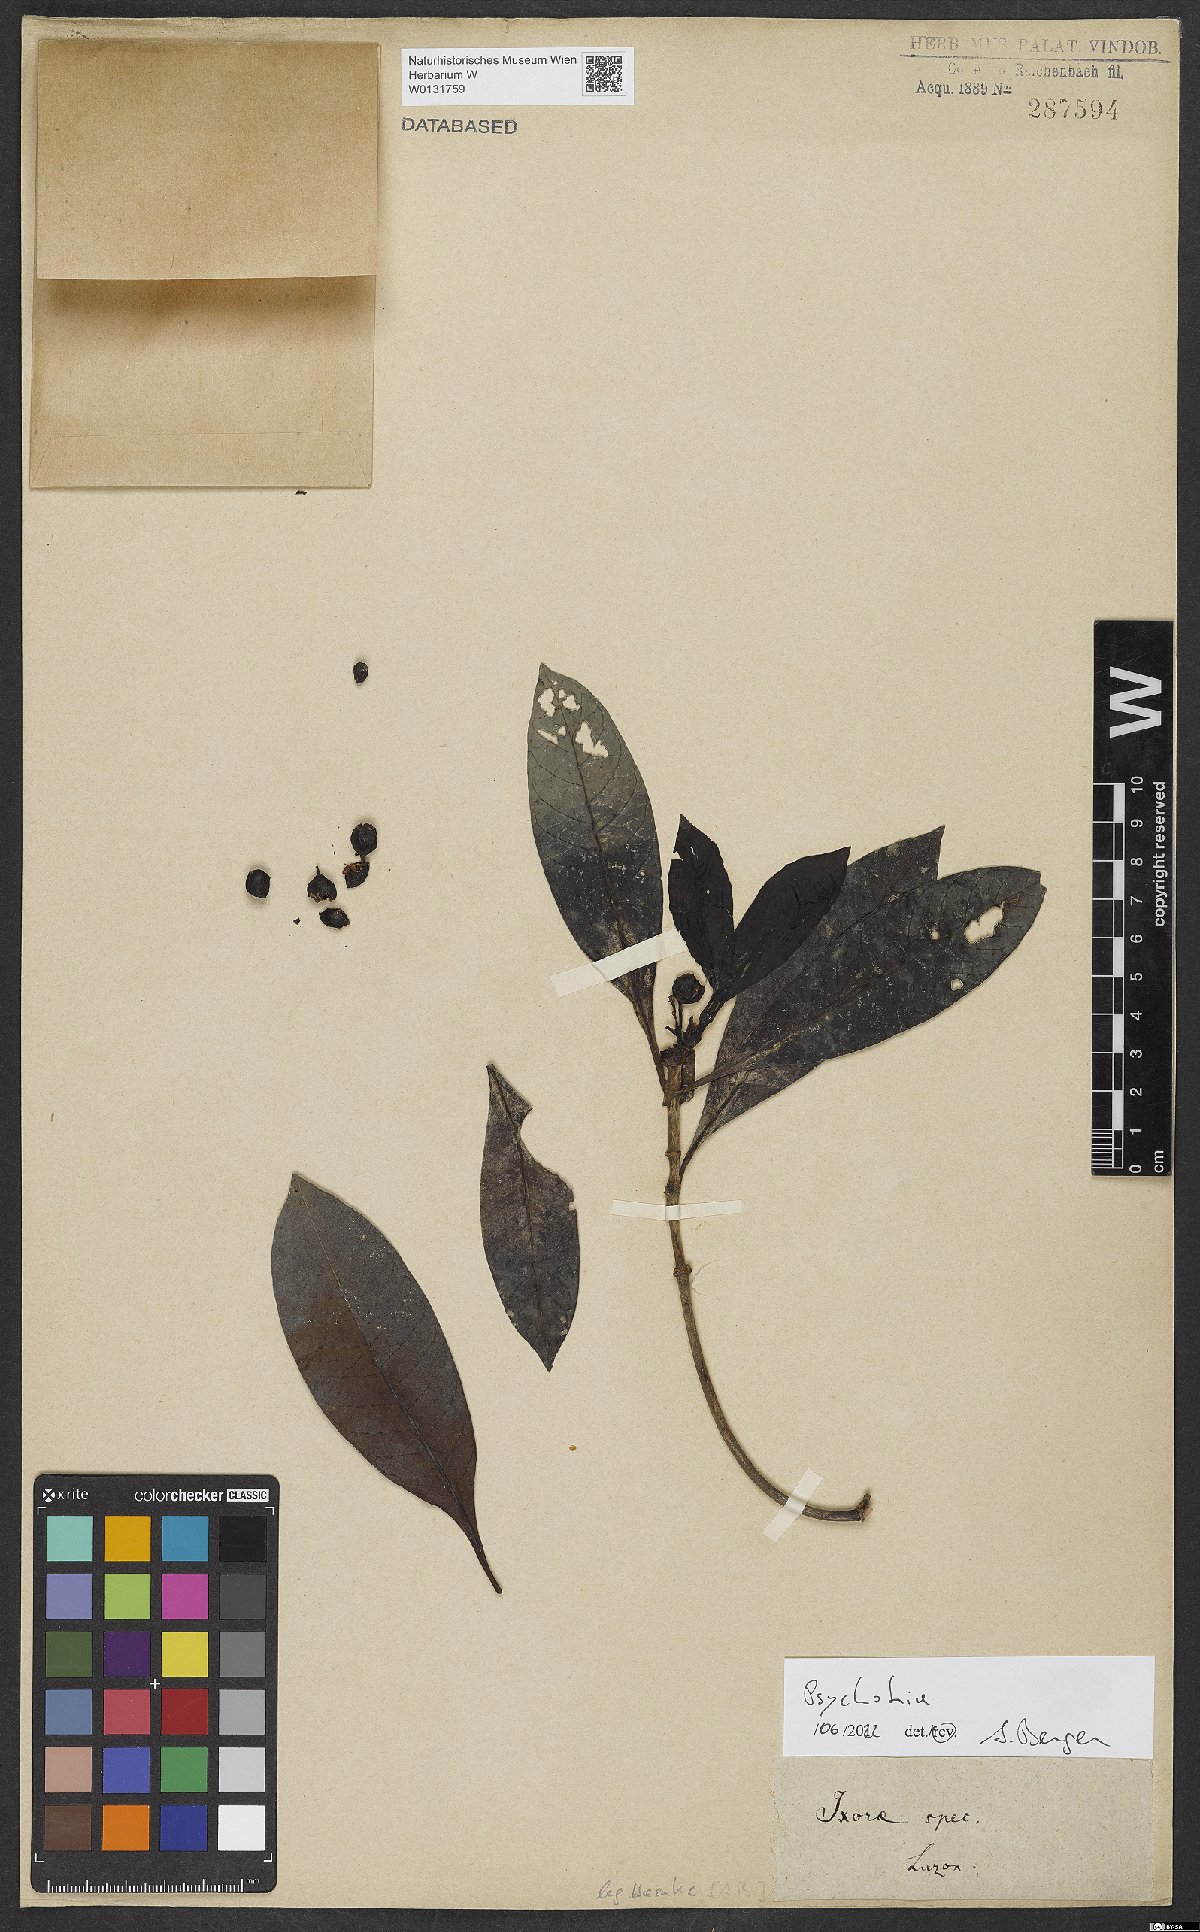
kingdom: Plantae
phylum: Tracheophyta
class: Magnoliopsida
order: Gentianales
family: Rubiaceae
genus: Psychotria
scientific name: Psychotria
